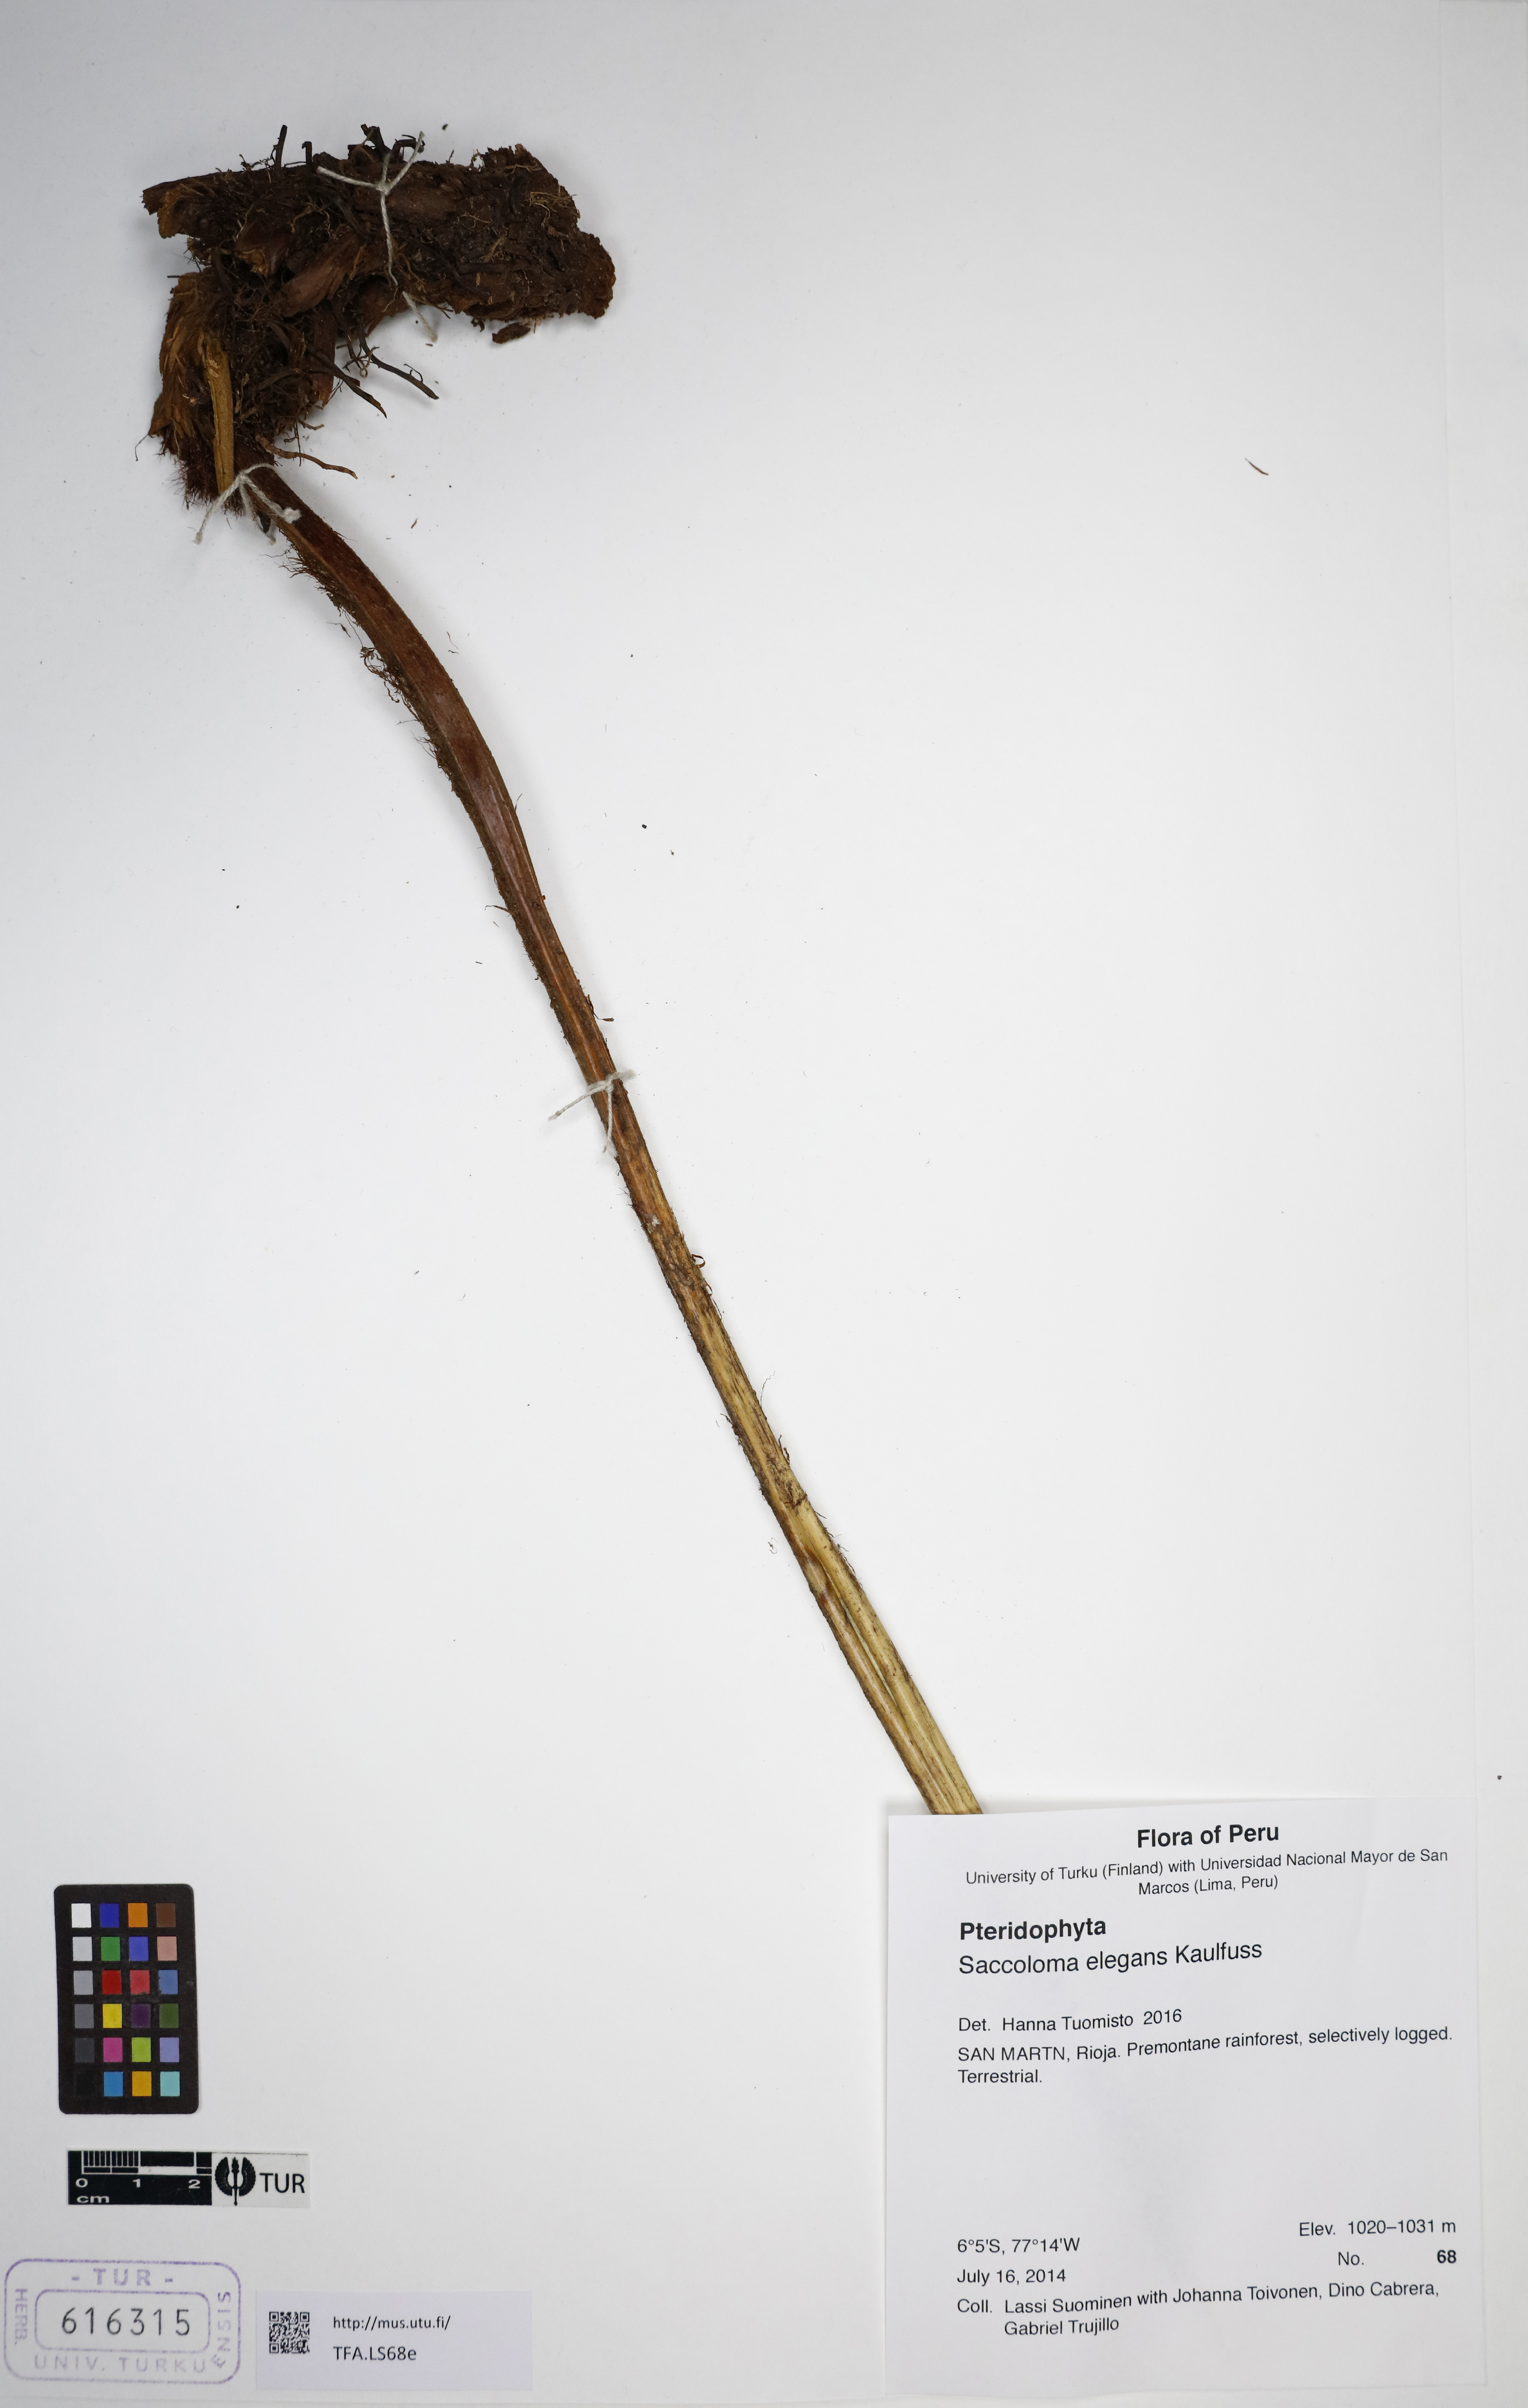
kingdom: Plantae
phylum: Tracheophyta
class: Polypodiopsida
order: Polypodiales
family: Saccolomataceae
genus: Saccoloma
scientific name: Saccoloma elegans
